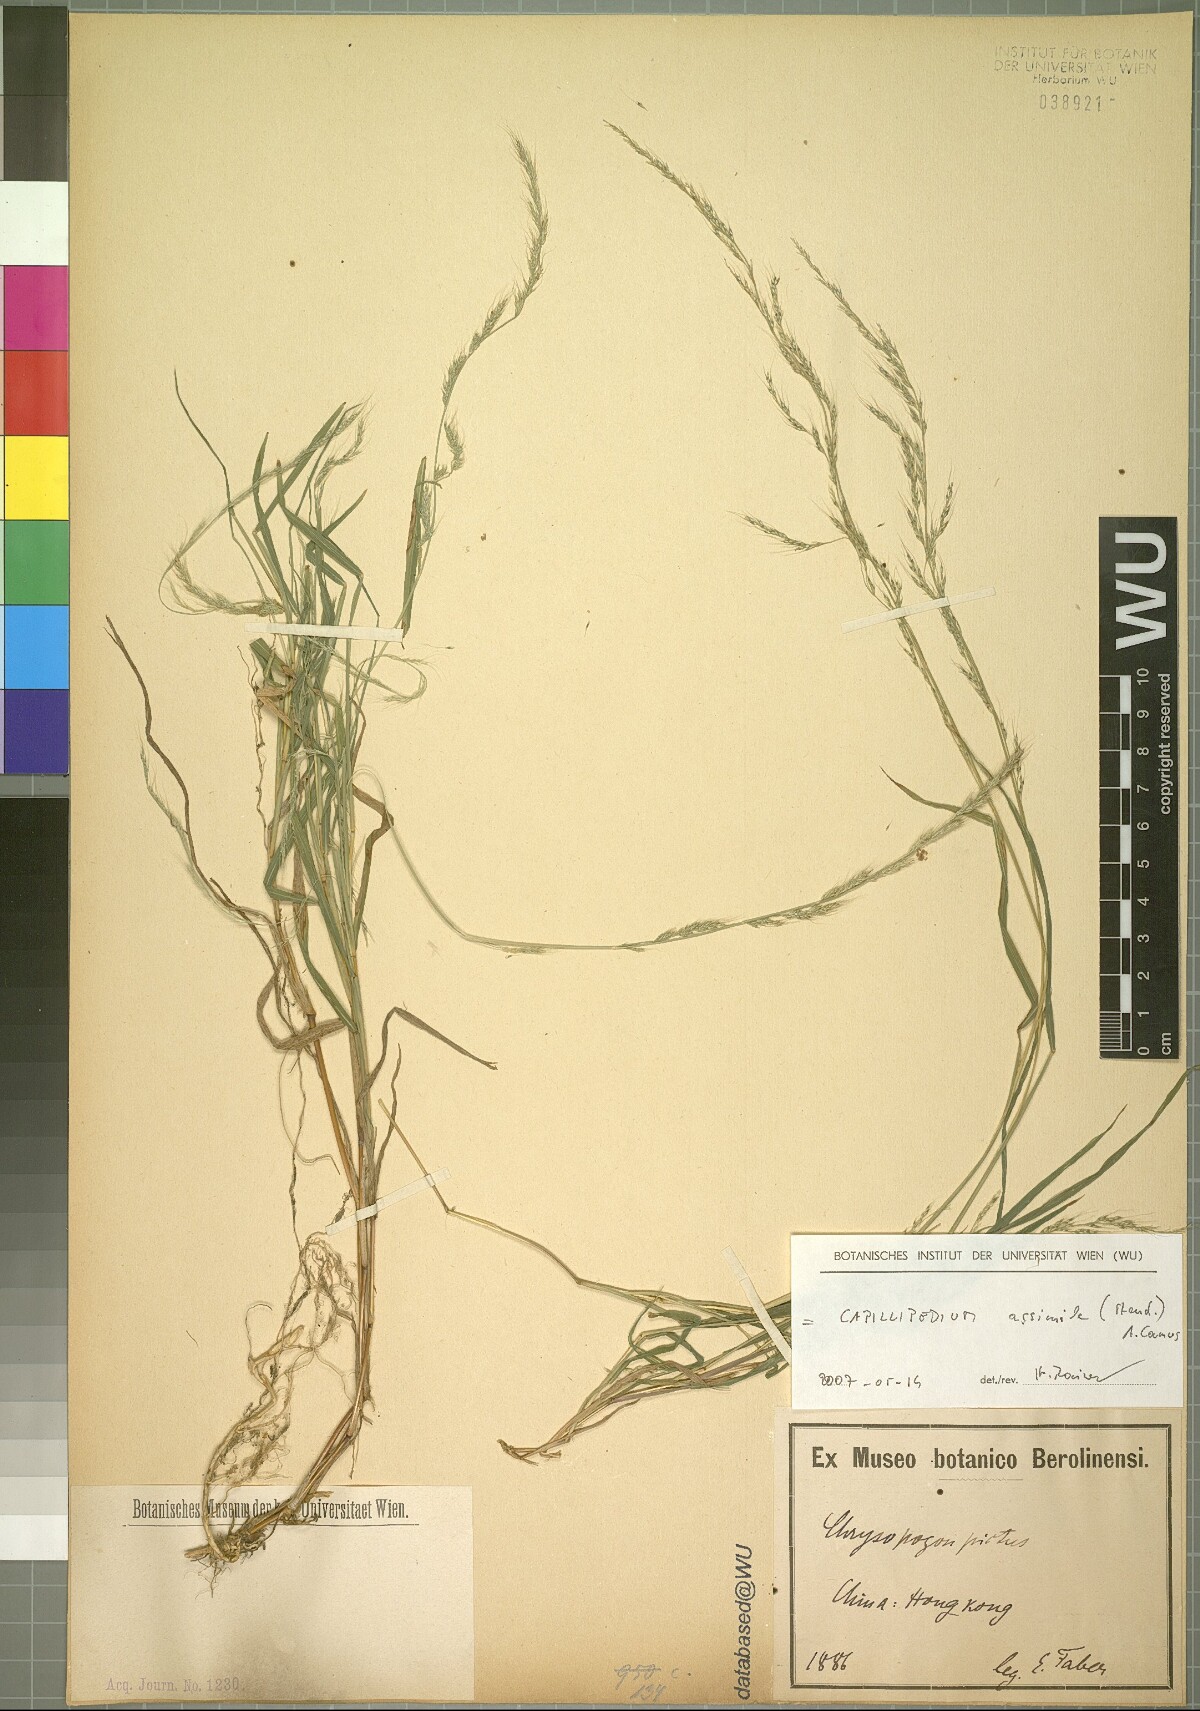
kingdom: Plantae
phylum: Tracheophyta
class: Liliopsida
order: Poales
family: Poaceae
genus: Capillipedium
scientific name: Capillipedium assimile
